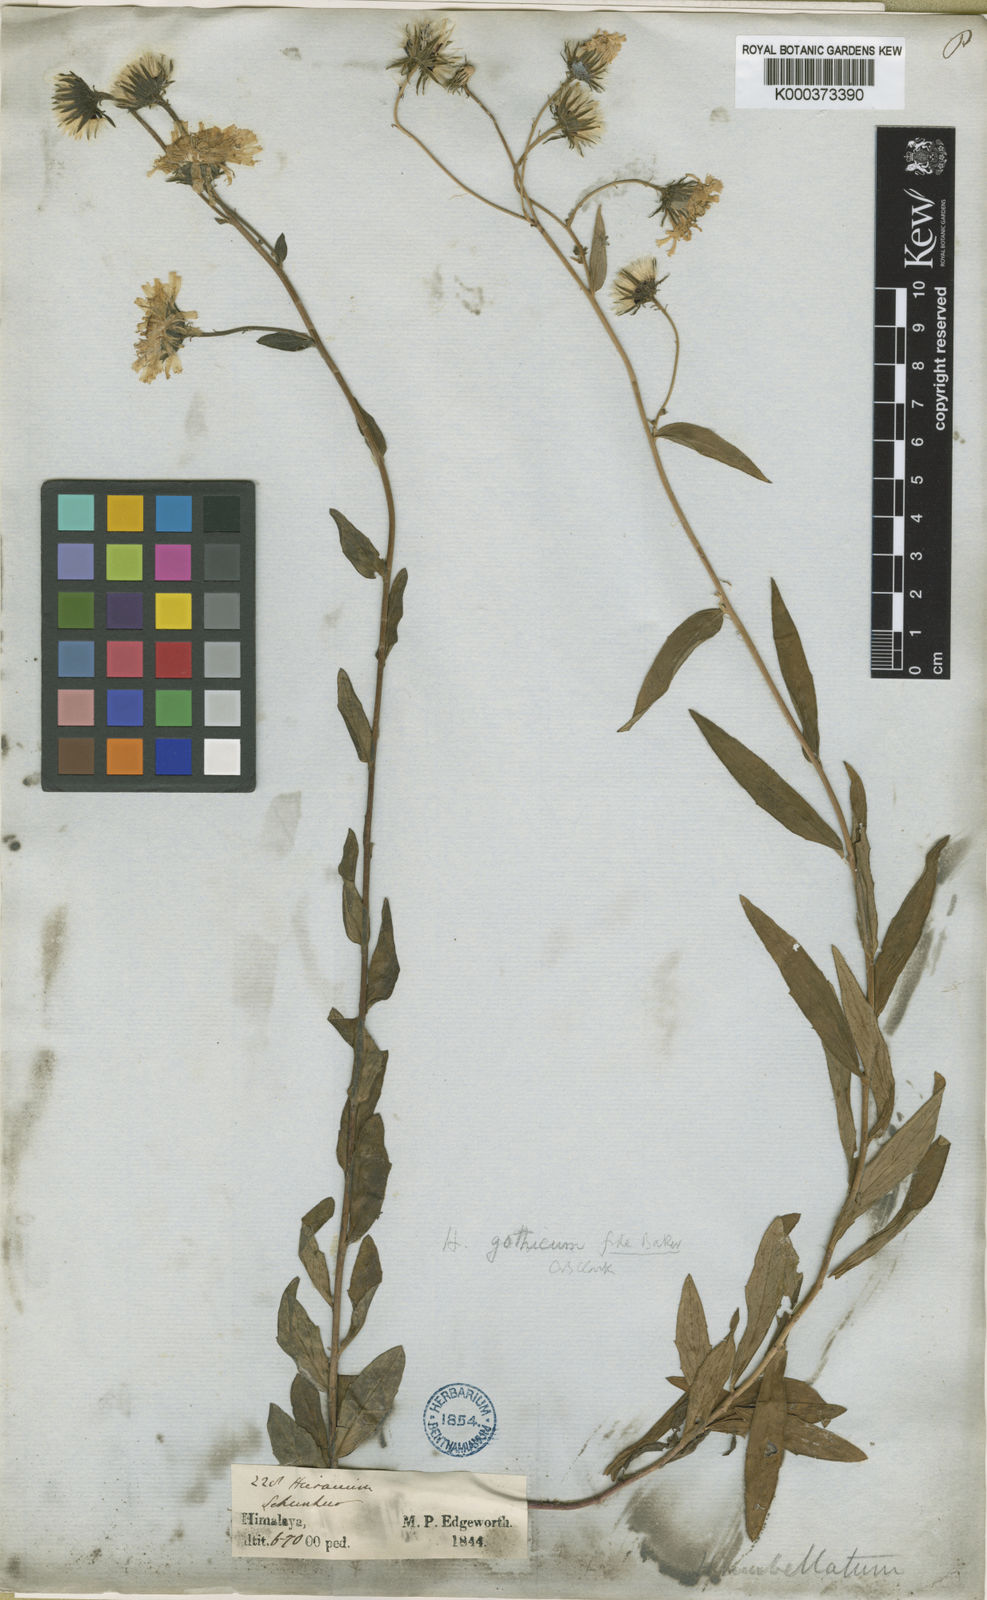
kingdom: Plantae
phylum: Tracheophyta
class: Magnoliopsida
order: Asterales
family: Asteraceae
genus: Hieracium
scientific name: Hieracium umbellatum
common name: Northern hawkweed
